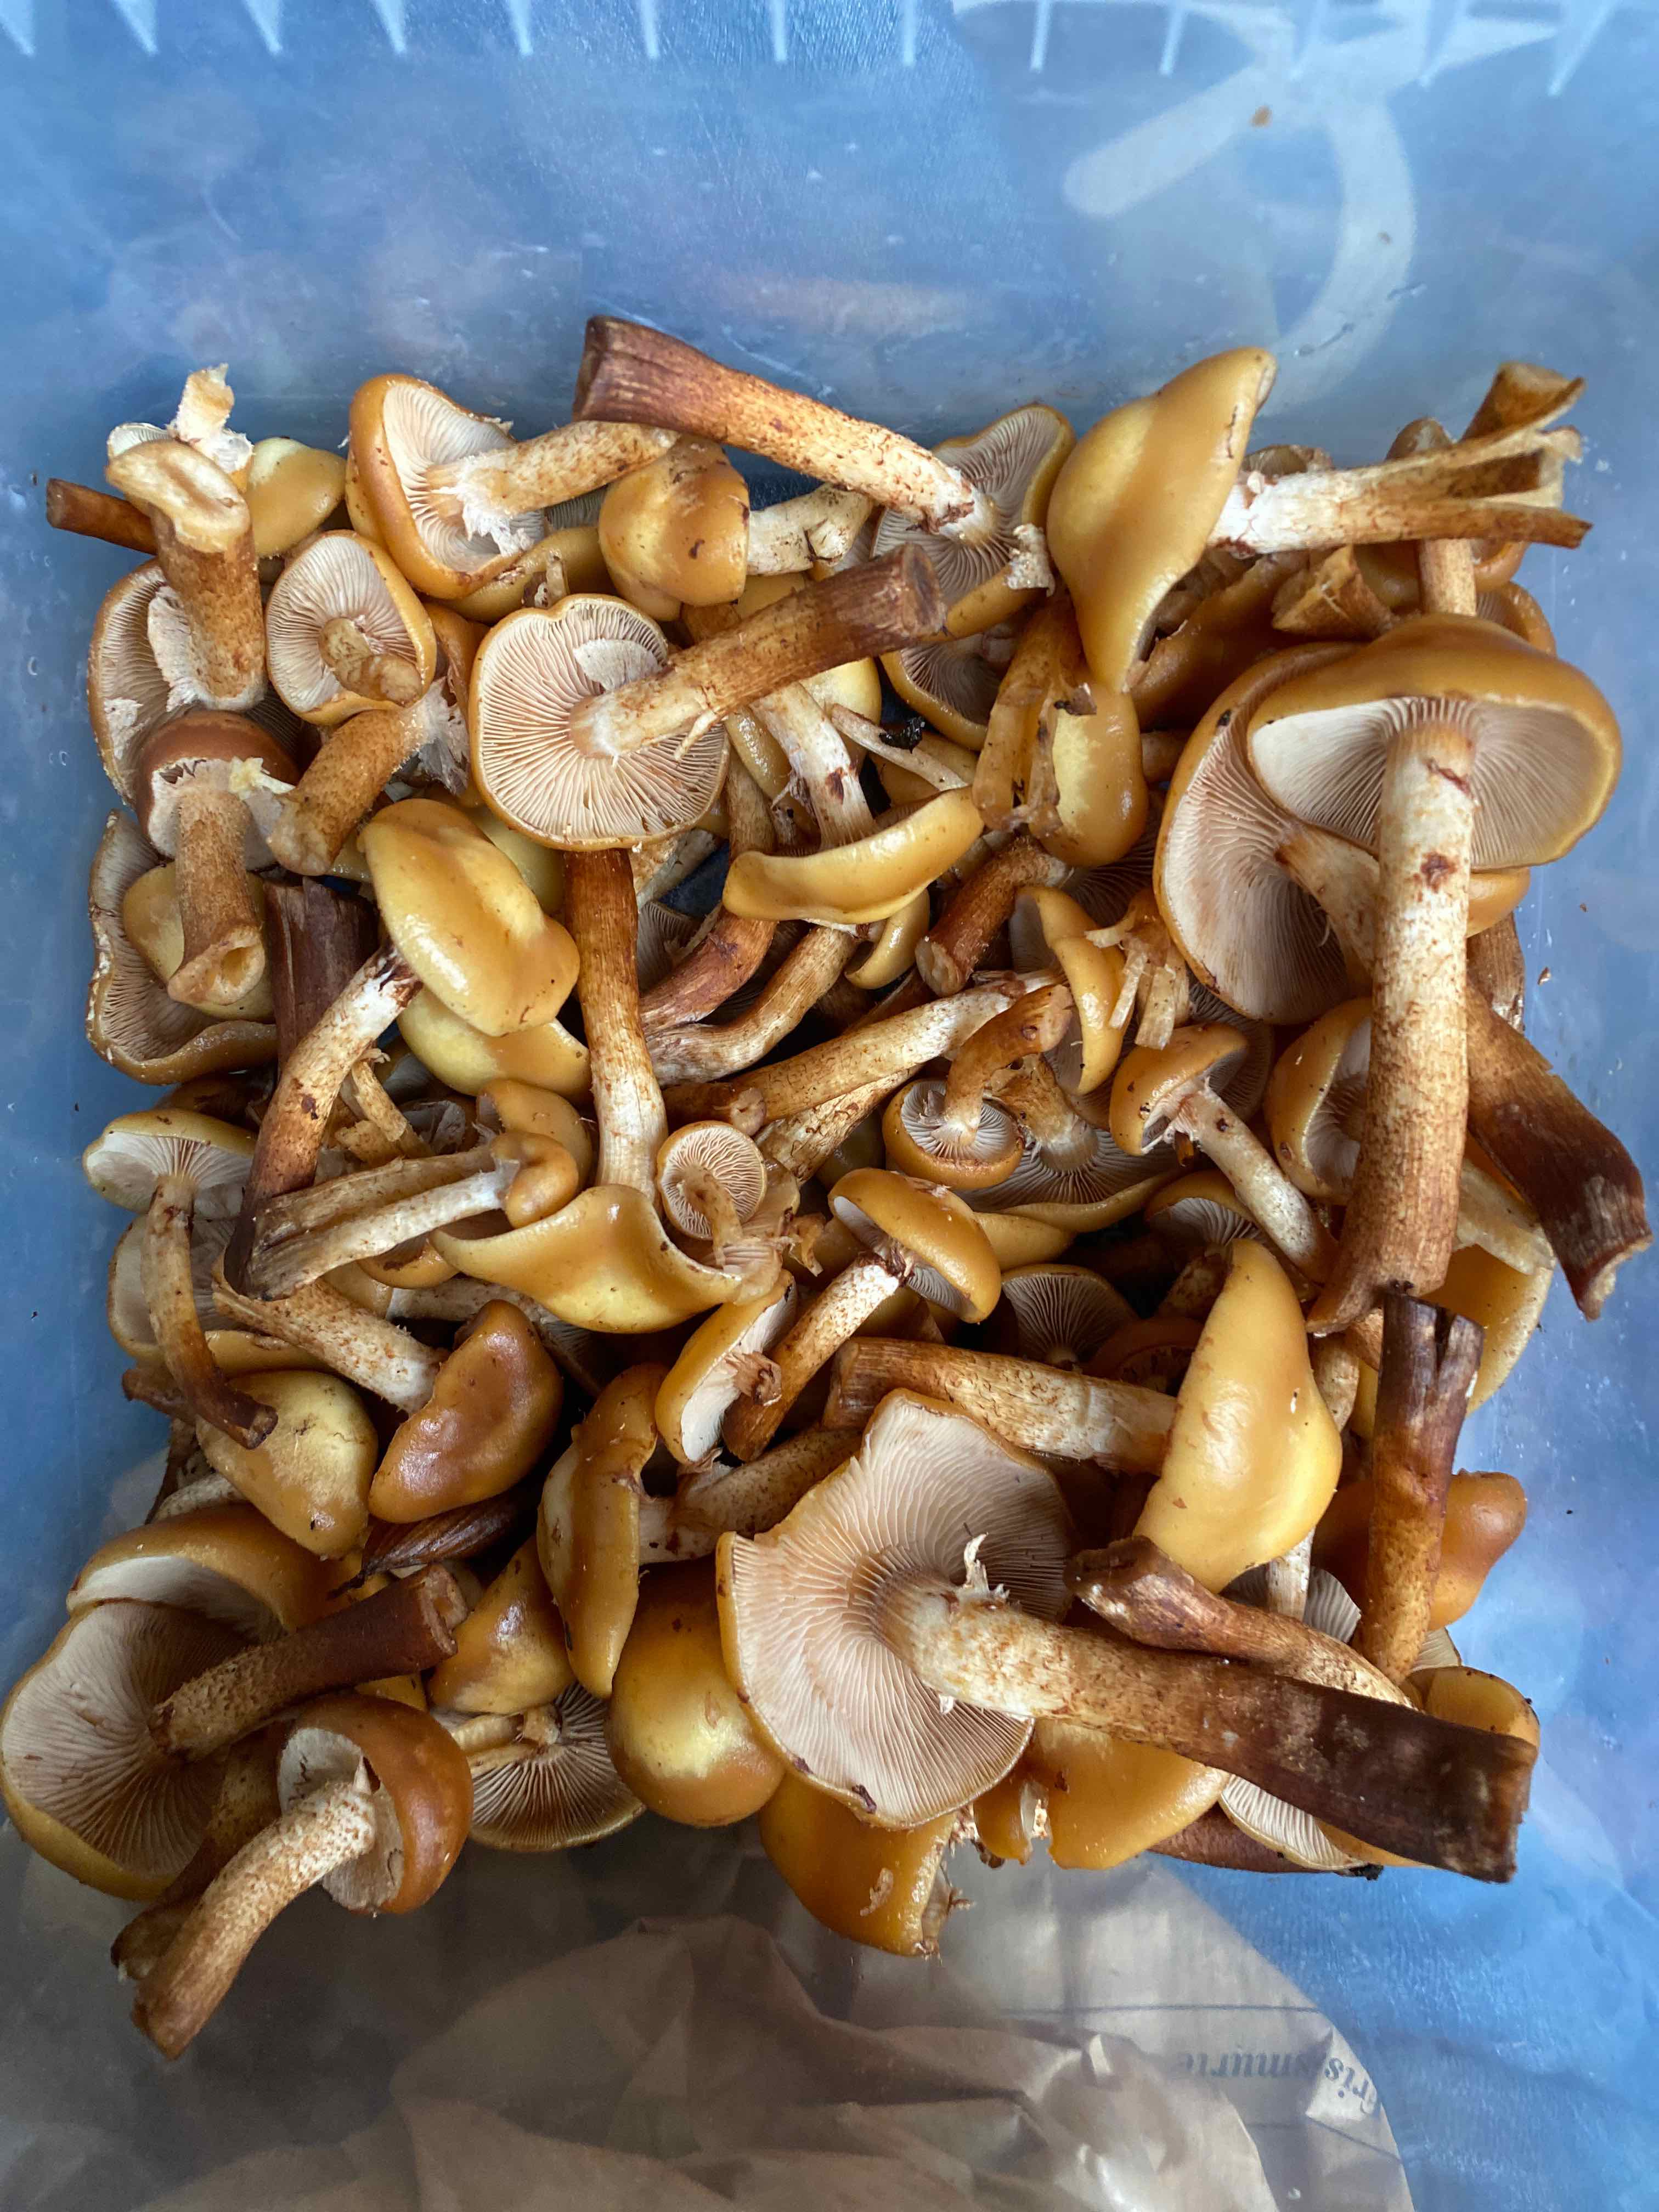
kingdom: Fungi
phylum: Basidiomycota
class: Agaricomycetes
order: Agaricales
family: Strophariaceae
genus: Kuehneromyces
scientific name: Kuehneromyces mutabilis
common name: foranderlig skælhat
